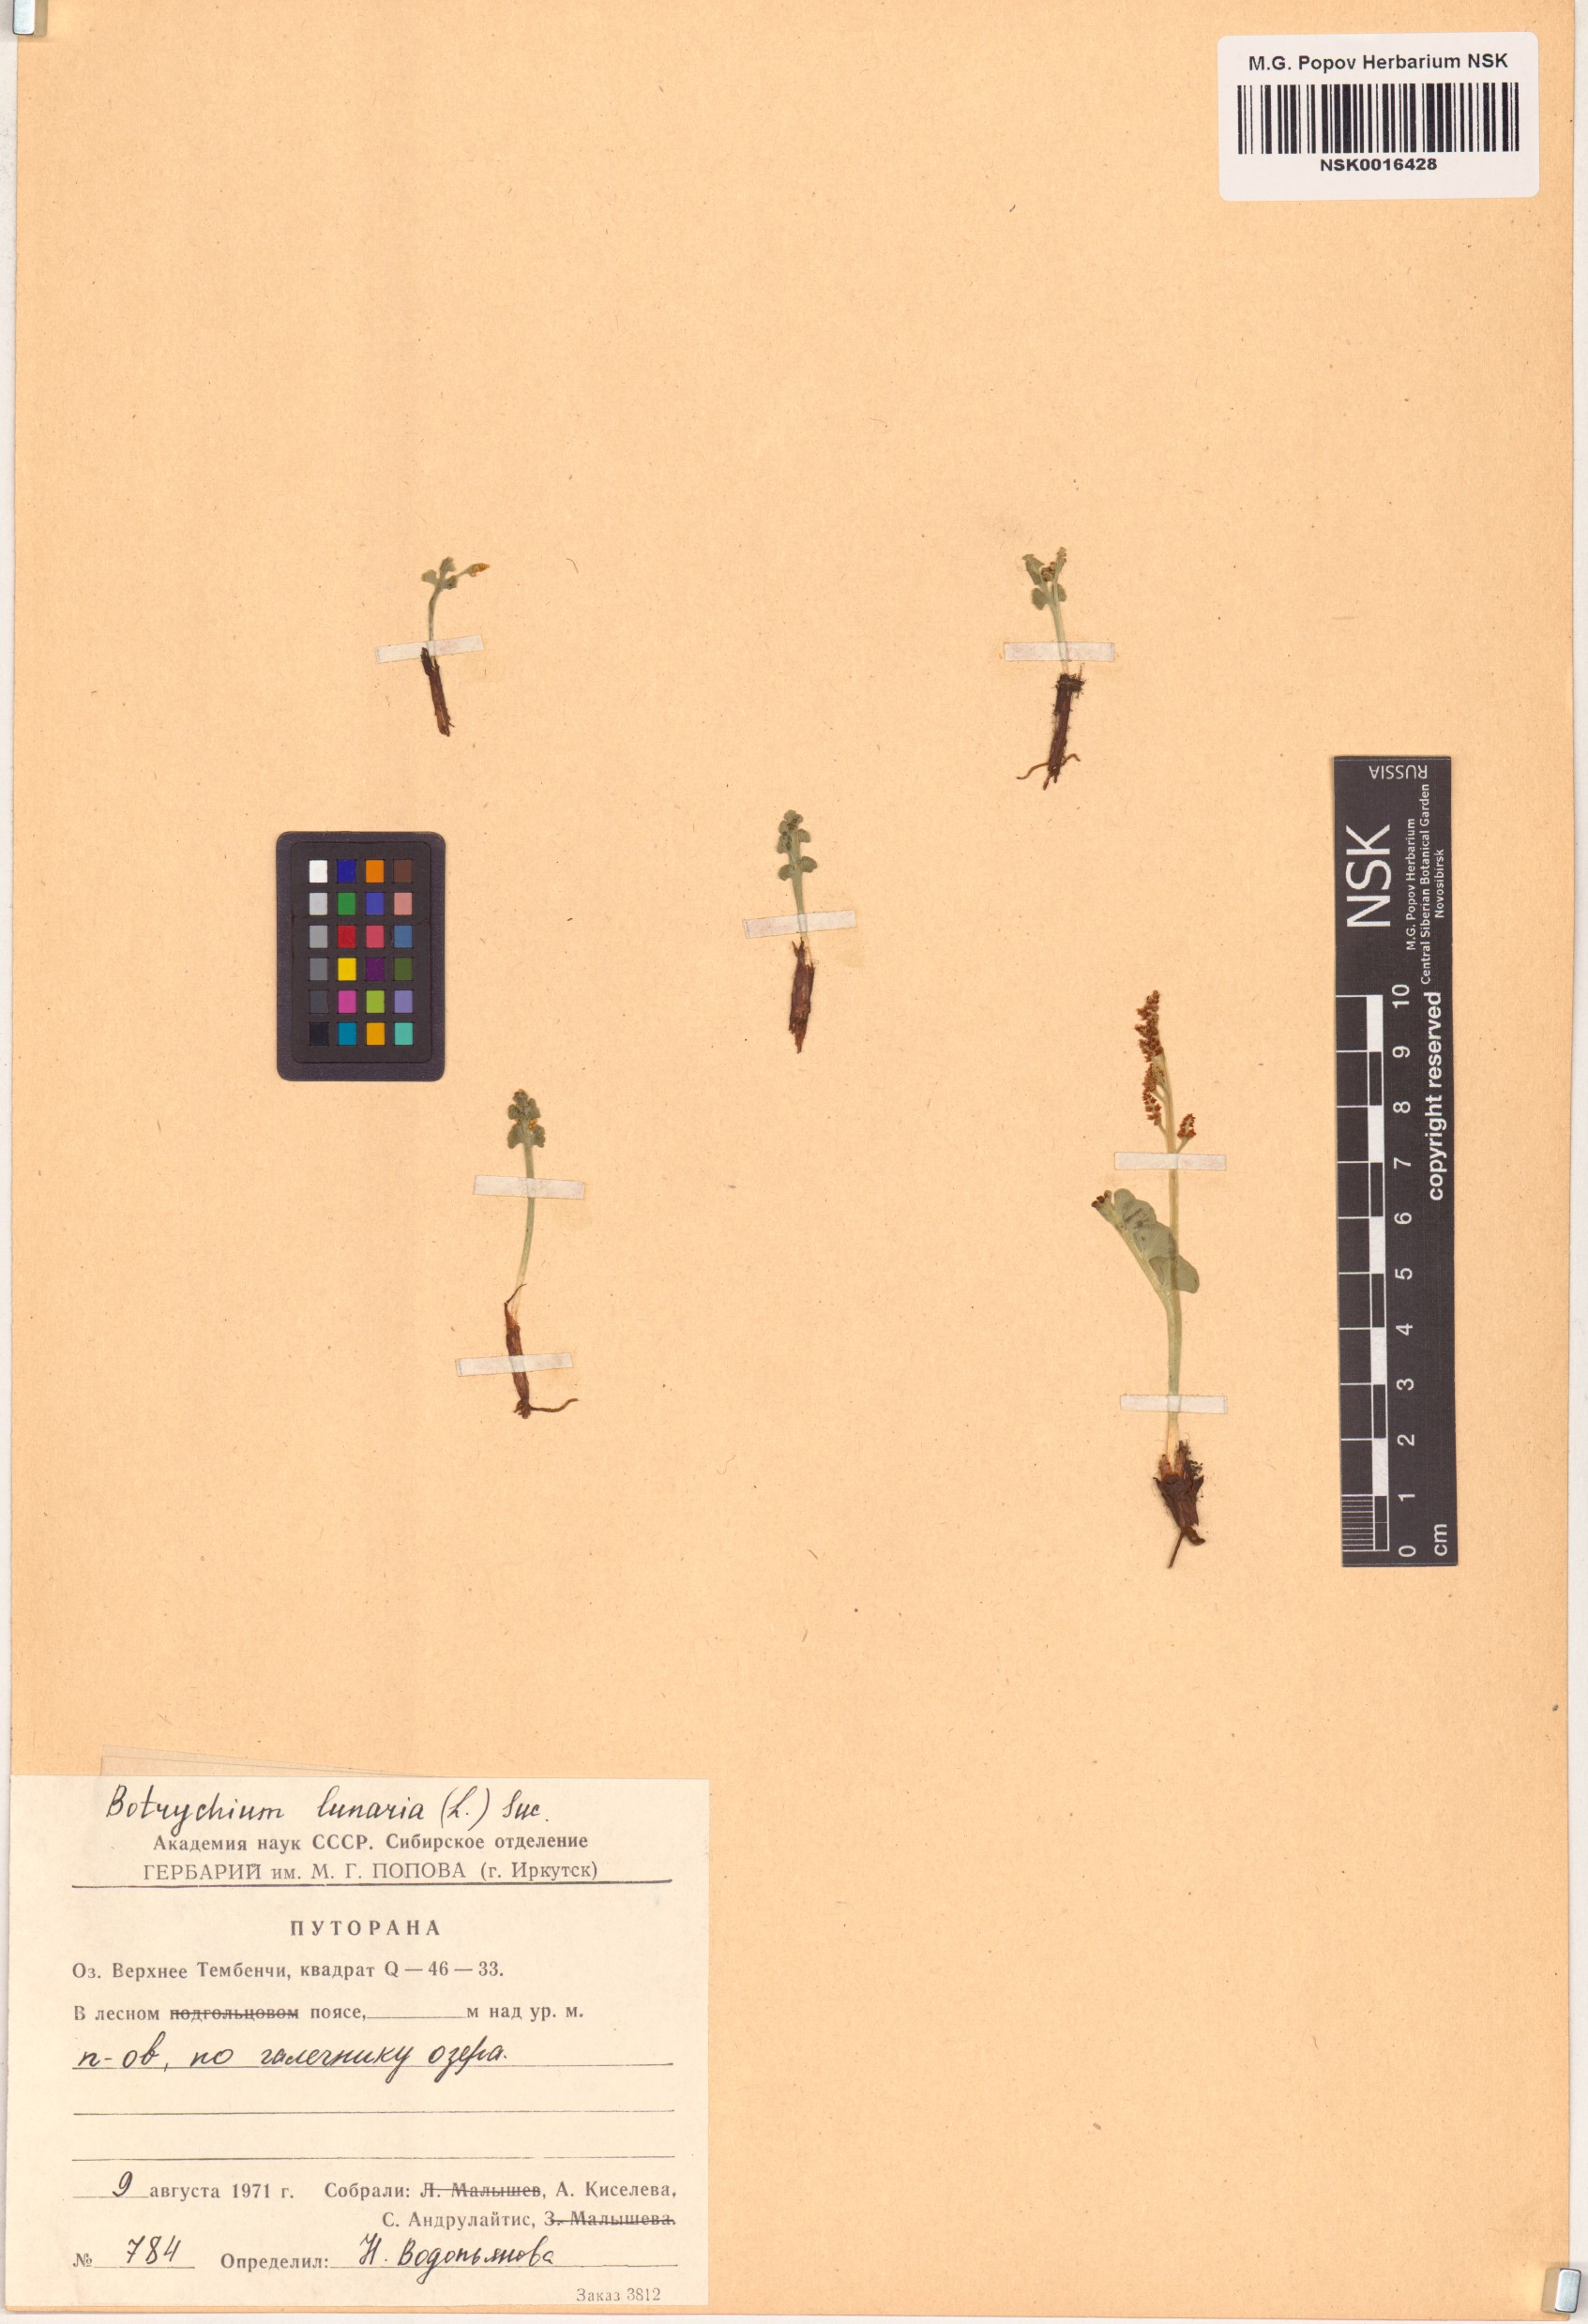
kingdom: Plantae
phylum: Tracheophyta
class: Polypodiopsida
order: Ophioglossales
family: Ophioglossaceae
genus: Botrychium
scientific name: Botrychium lunaria
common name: Moonwort
